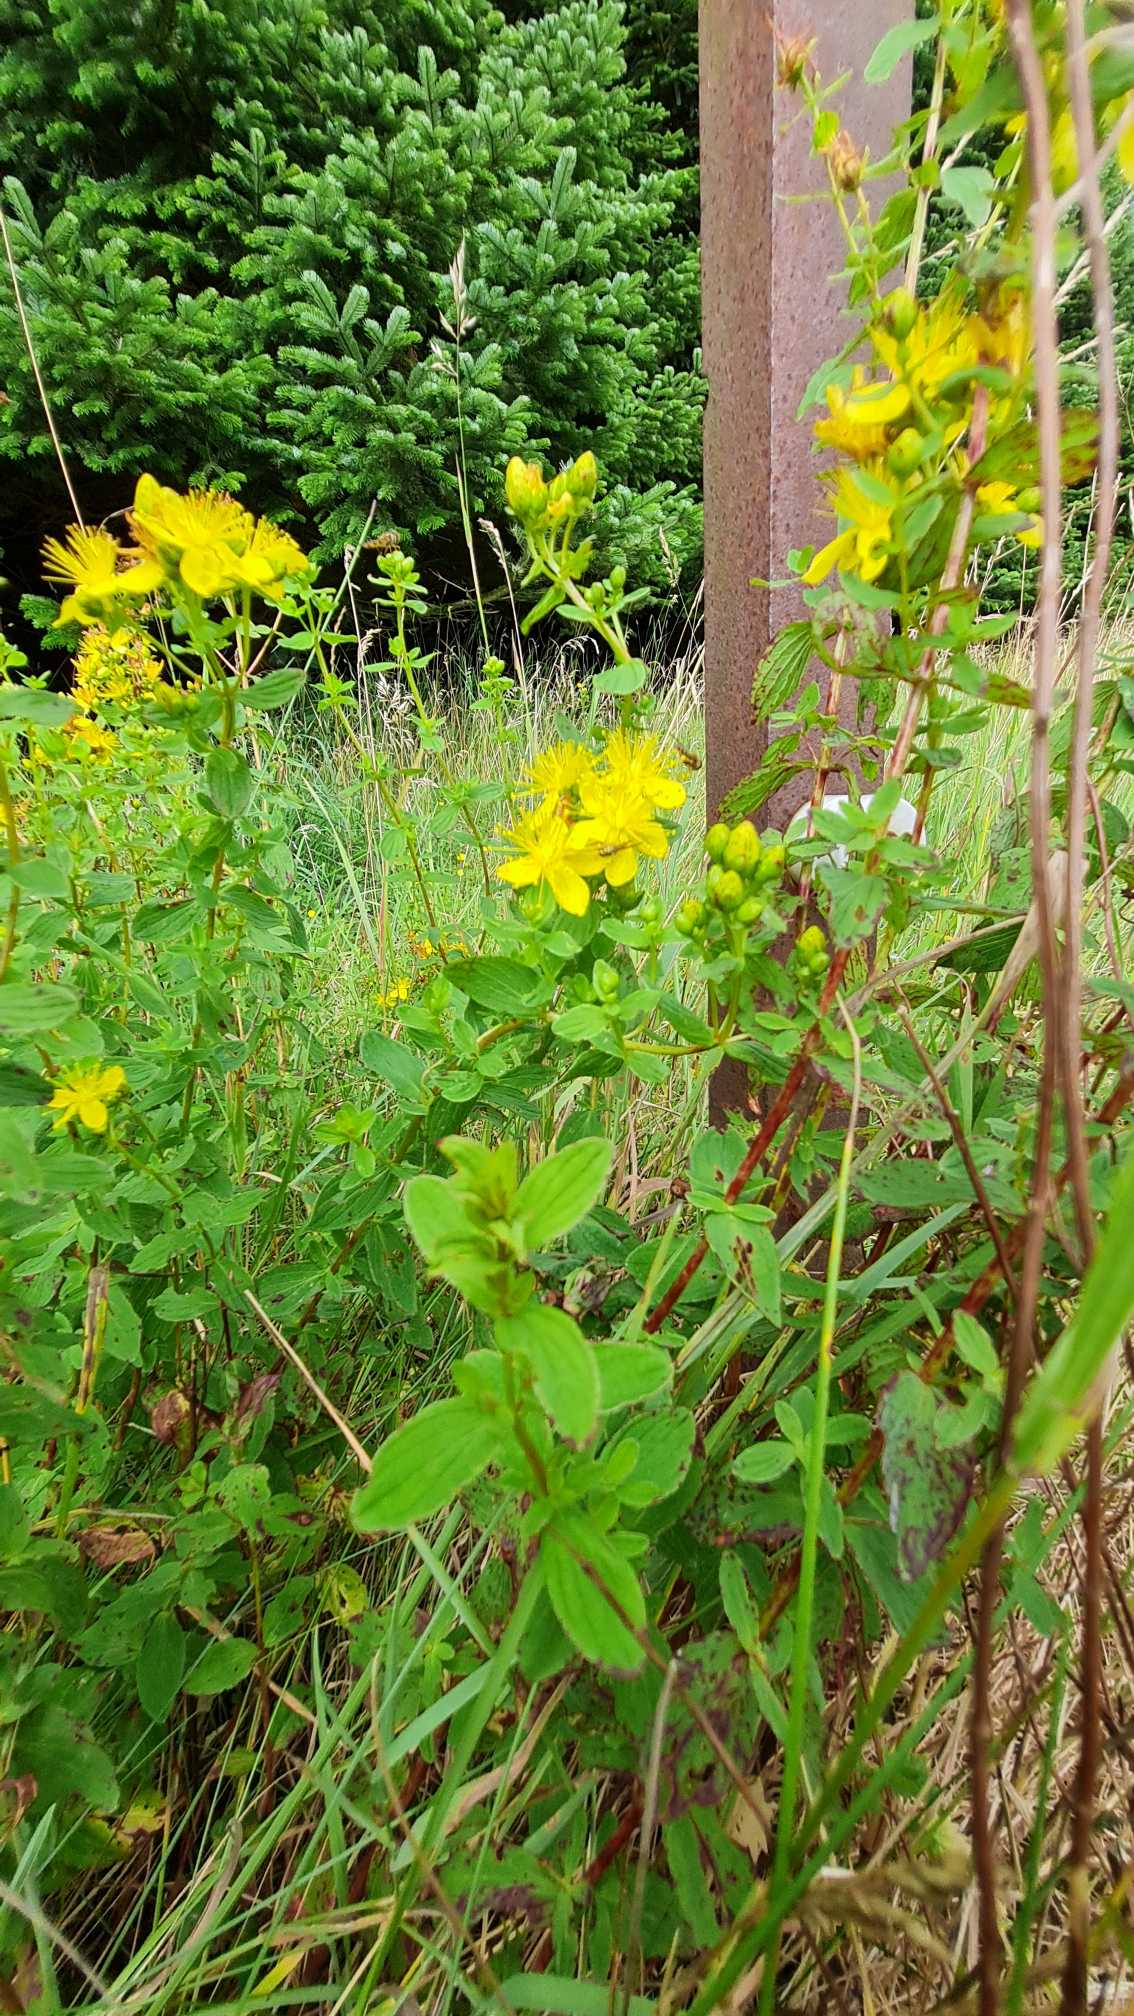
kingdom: Plantae
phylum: Tracheophyta
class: Magnoliopsida
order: Malpighiales
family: Hypericaceae
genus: Hypericum
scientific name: Hypericum maculatum
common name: Kantet perikon
